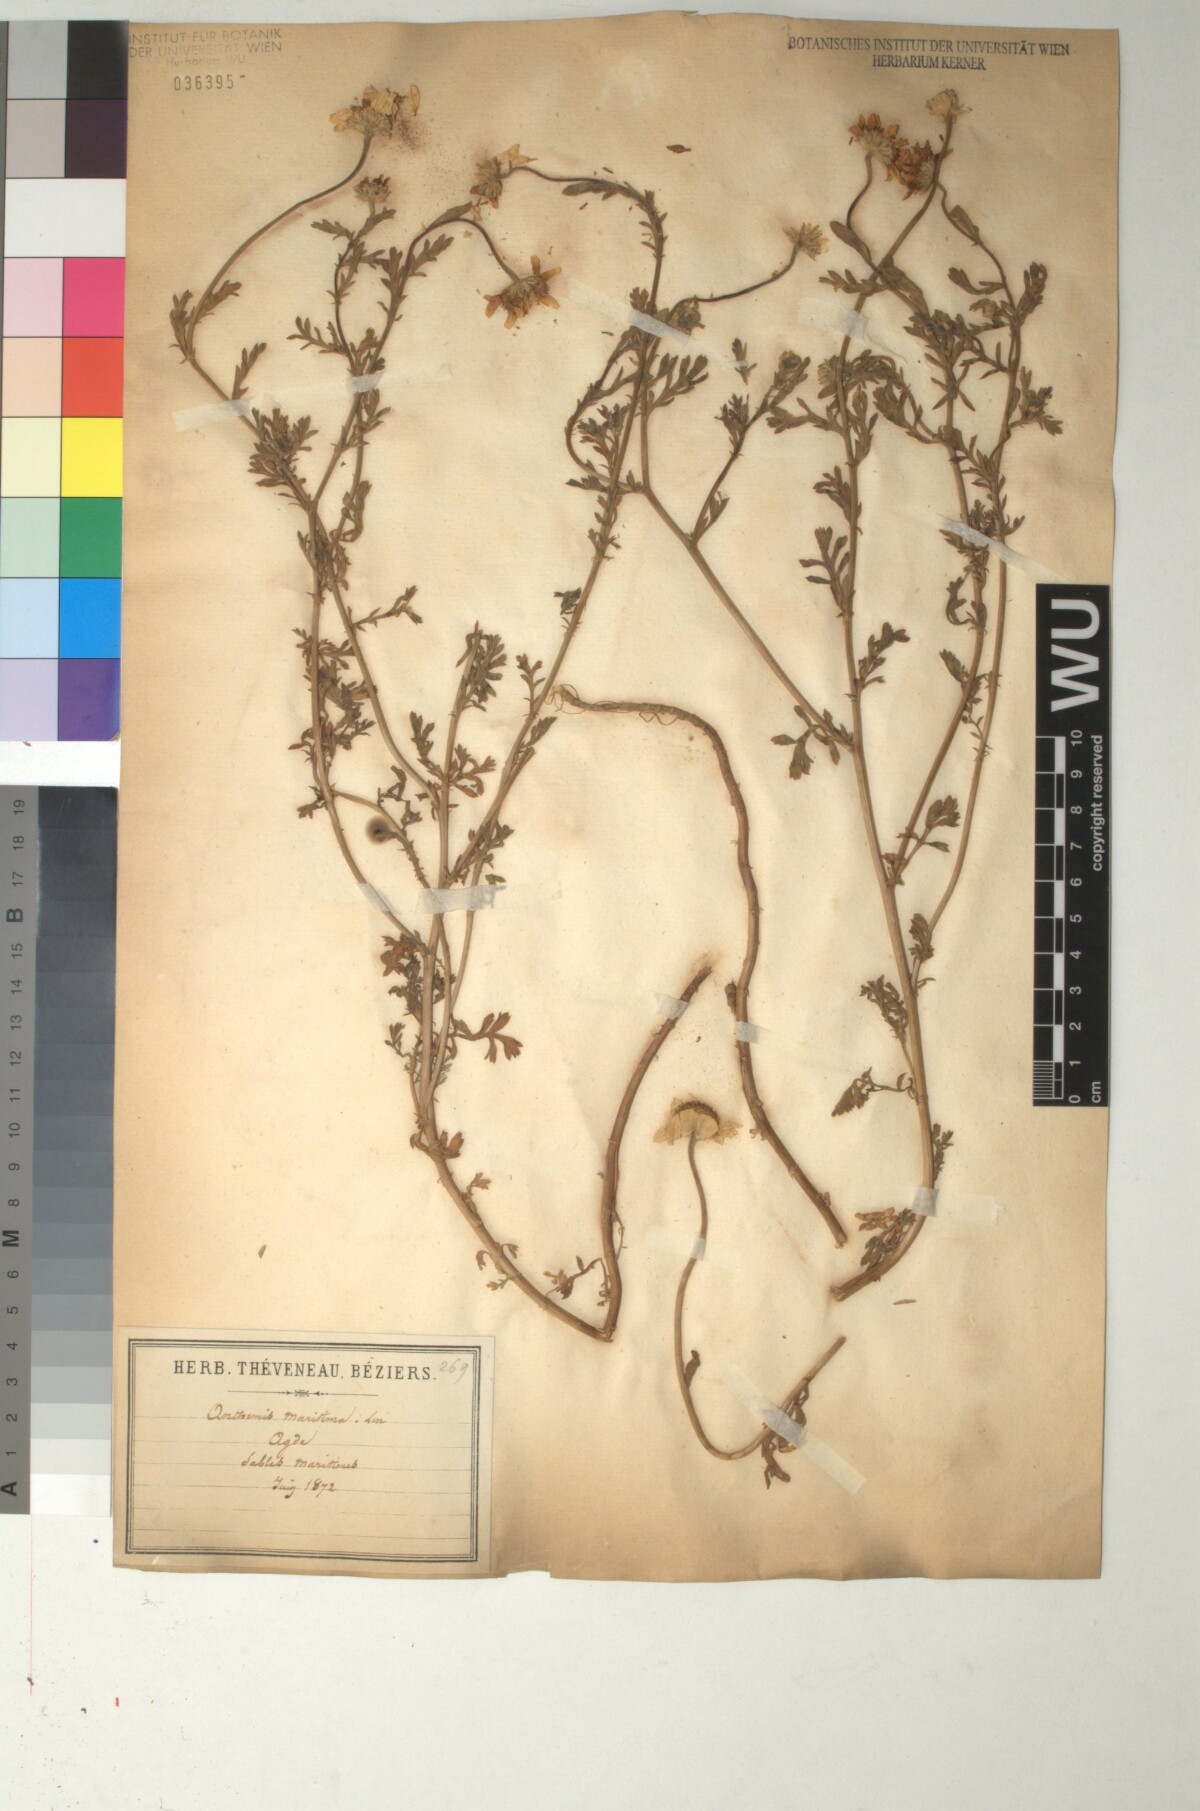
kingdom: Plantae
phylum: Tracheophyta
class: Magnoliopsida
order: Asterales
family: Asteraceae
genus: Anthemis
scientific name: Anthemis maritima
